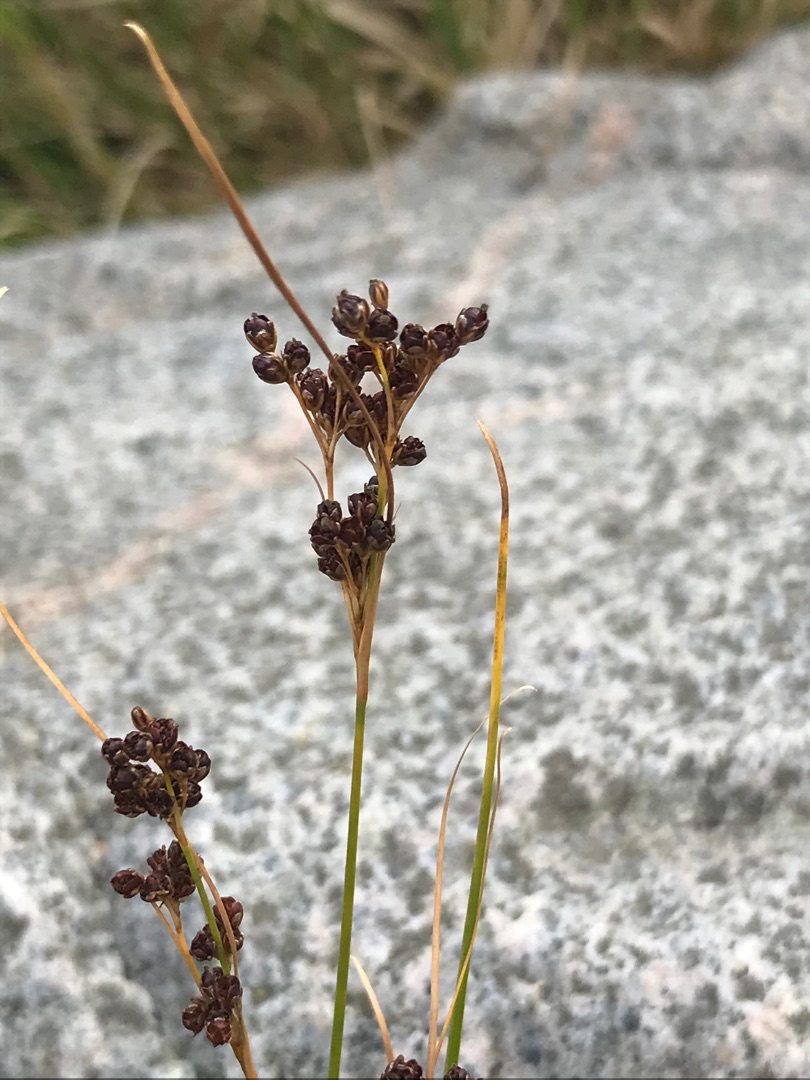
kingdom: Plantae
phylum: Tracheophyta
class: Liliopsida
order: Poales
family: Juncaceae
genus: Juncus
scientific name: Juncus compressus
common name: Fladstrået siv
